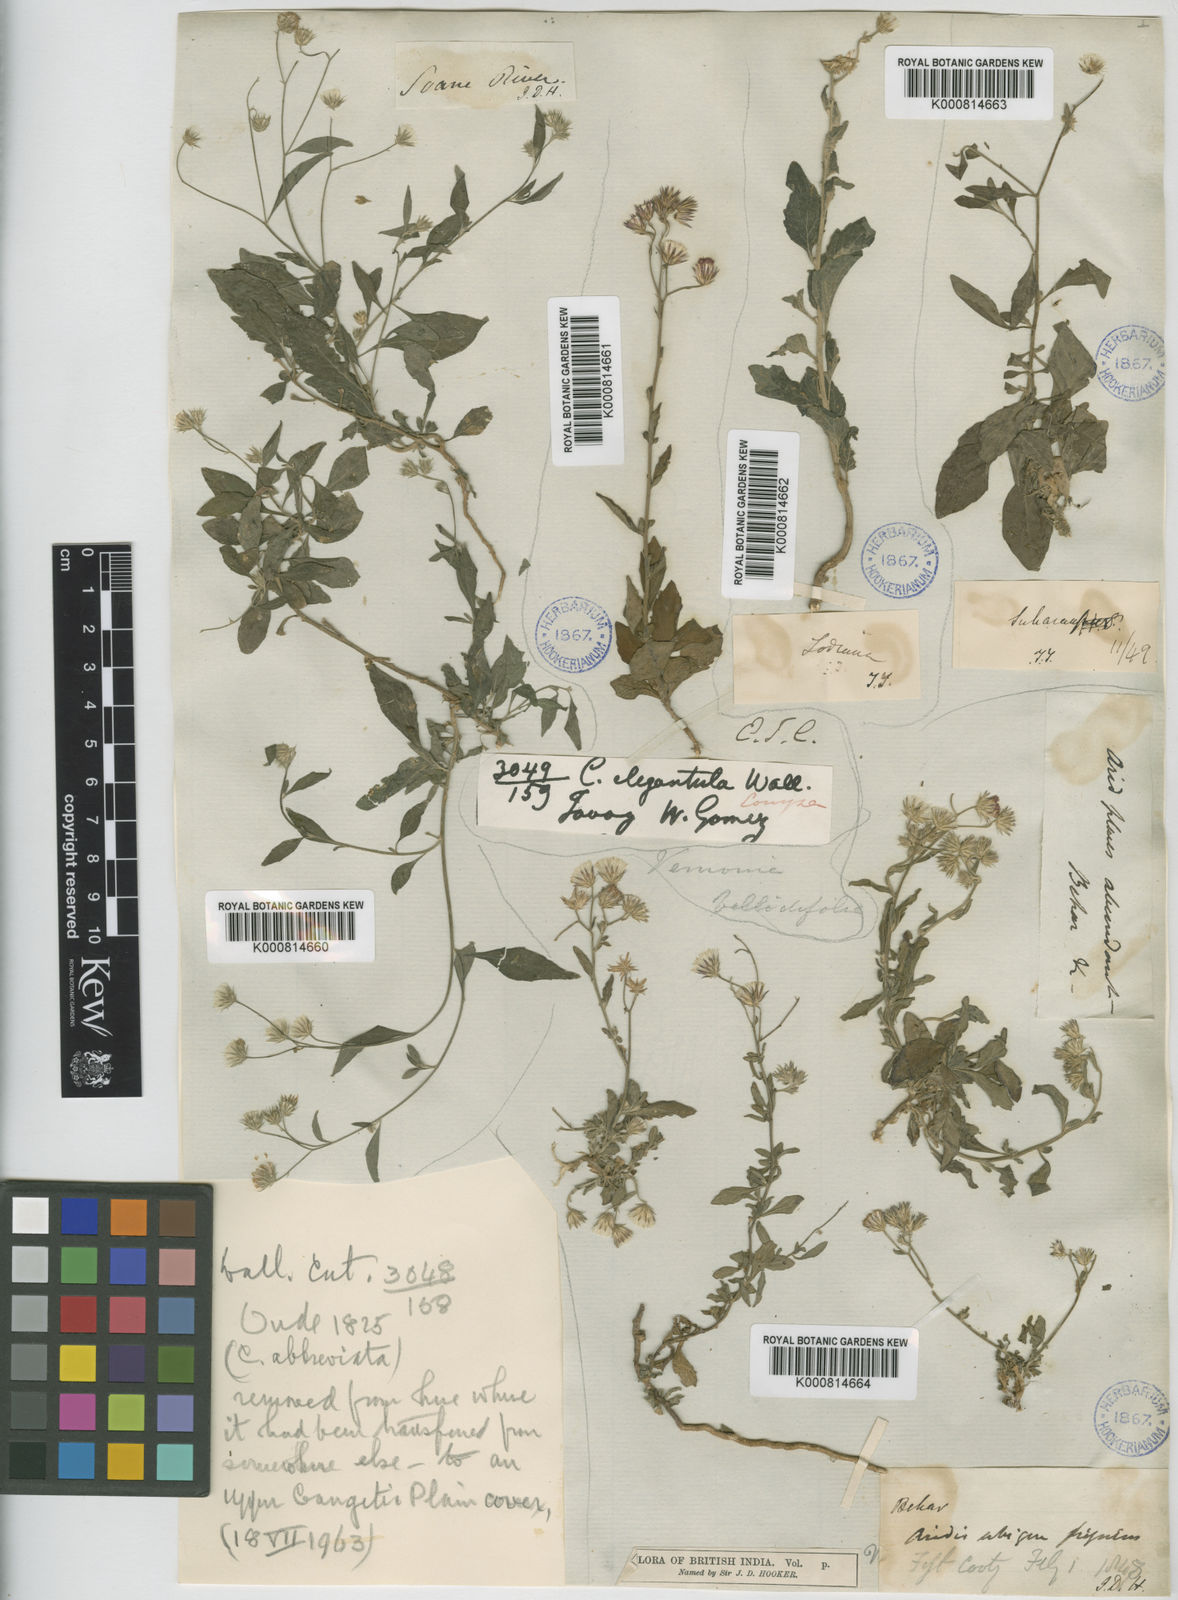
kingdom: Plantae
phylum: Tracheophyta
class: Magnoliopsida
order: Asterales
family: Asteraceae
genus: Cyanthillium
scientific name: Cyanthillium cinereum
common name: Little ironweed
